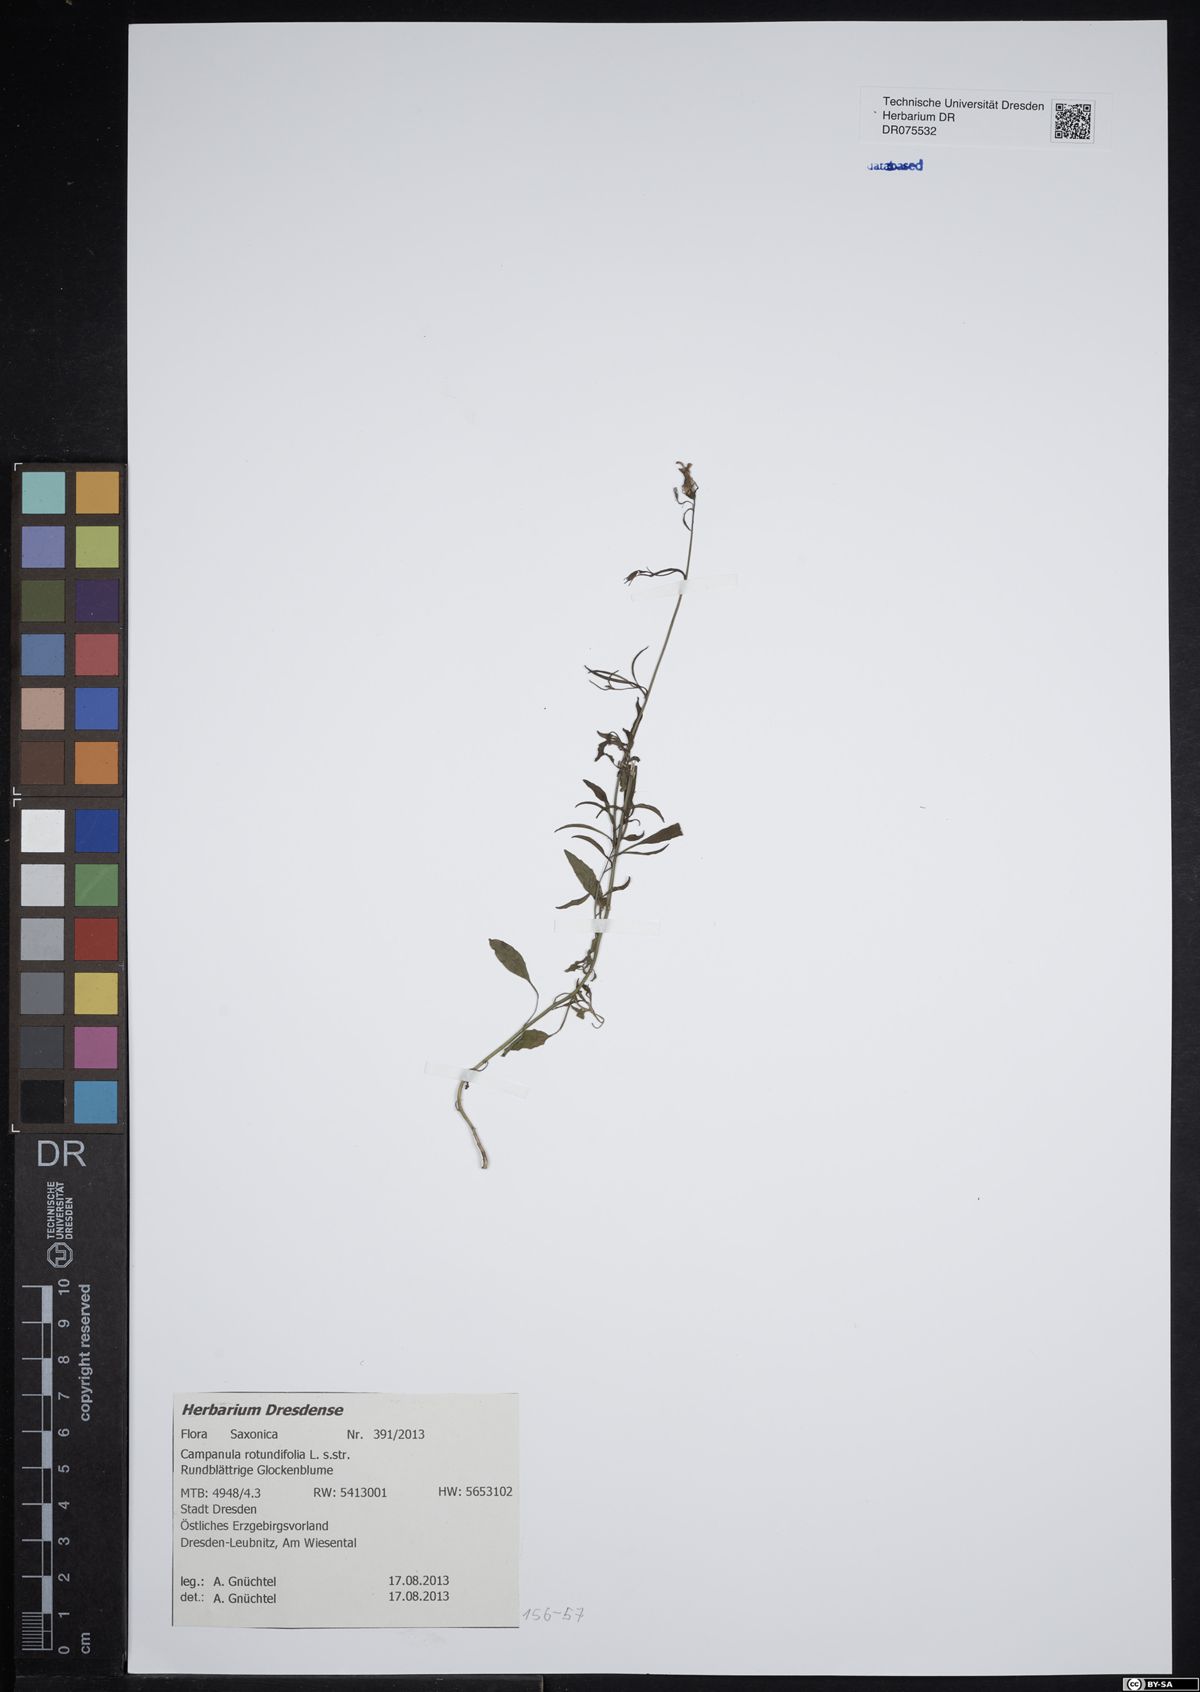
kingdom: Plantae
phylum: Tracheophyta
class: Magnoliopsida
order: Asterales
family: Campanulaceae
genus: Campanula
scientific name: Campanula rotundifolia
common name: Harebell
